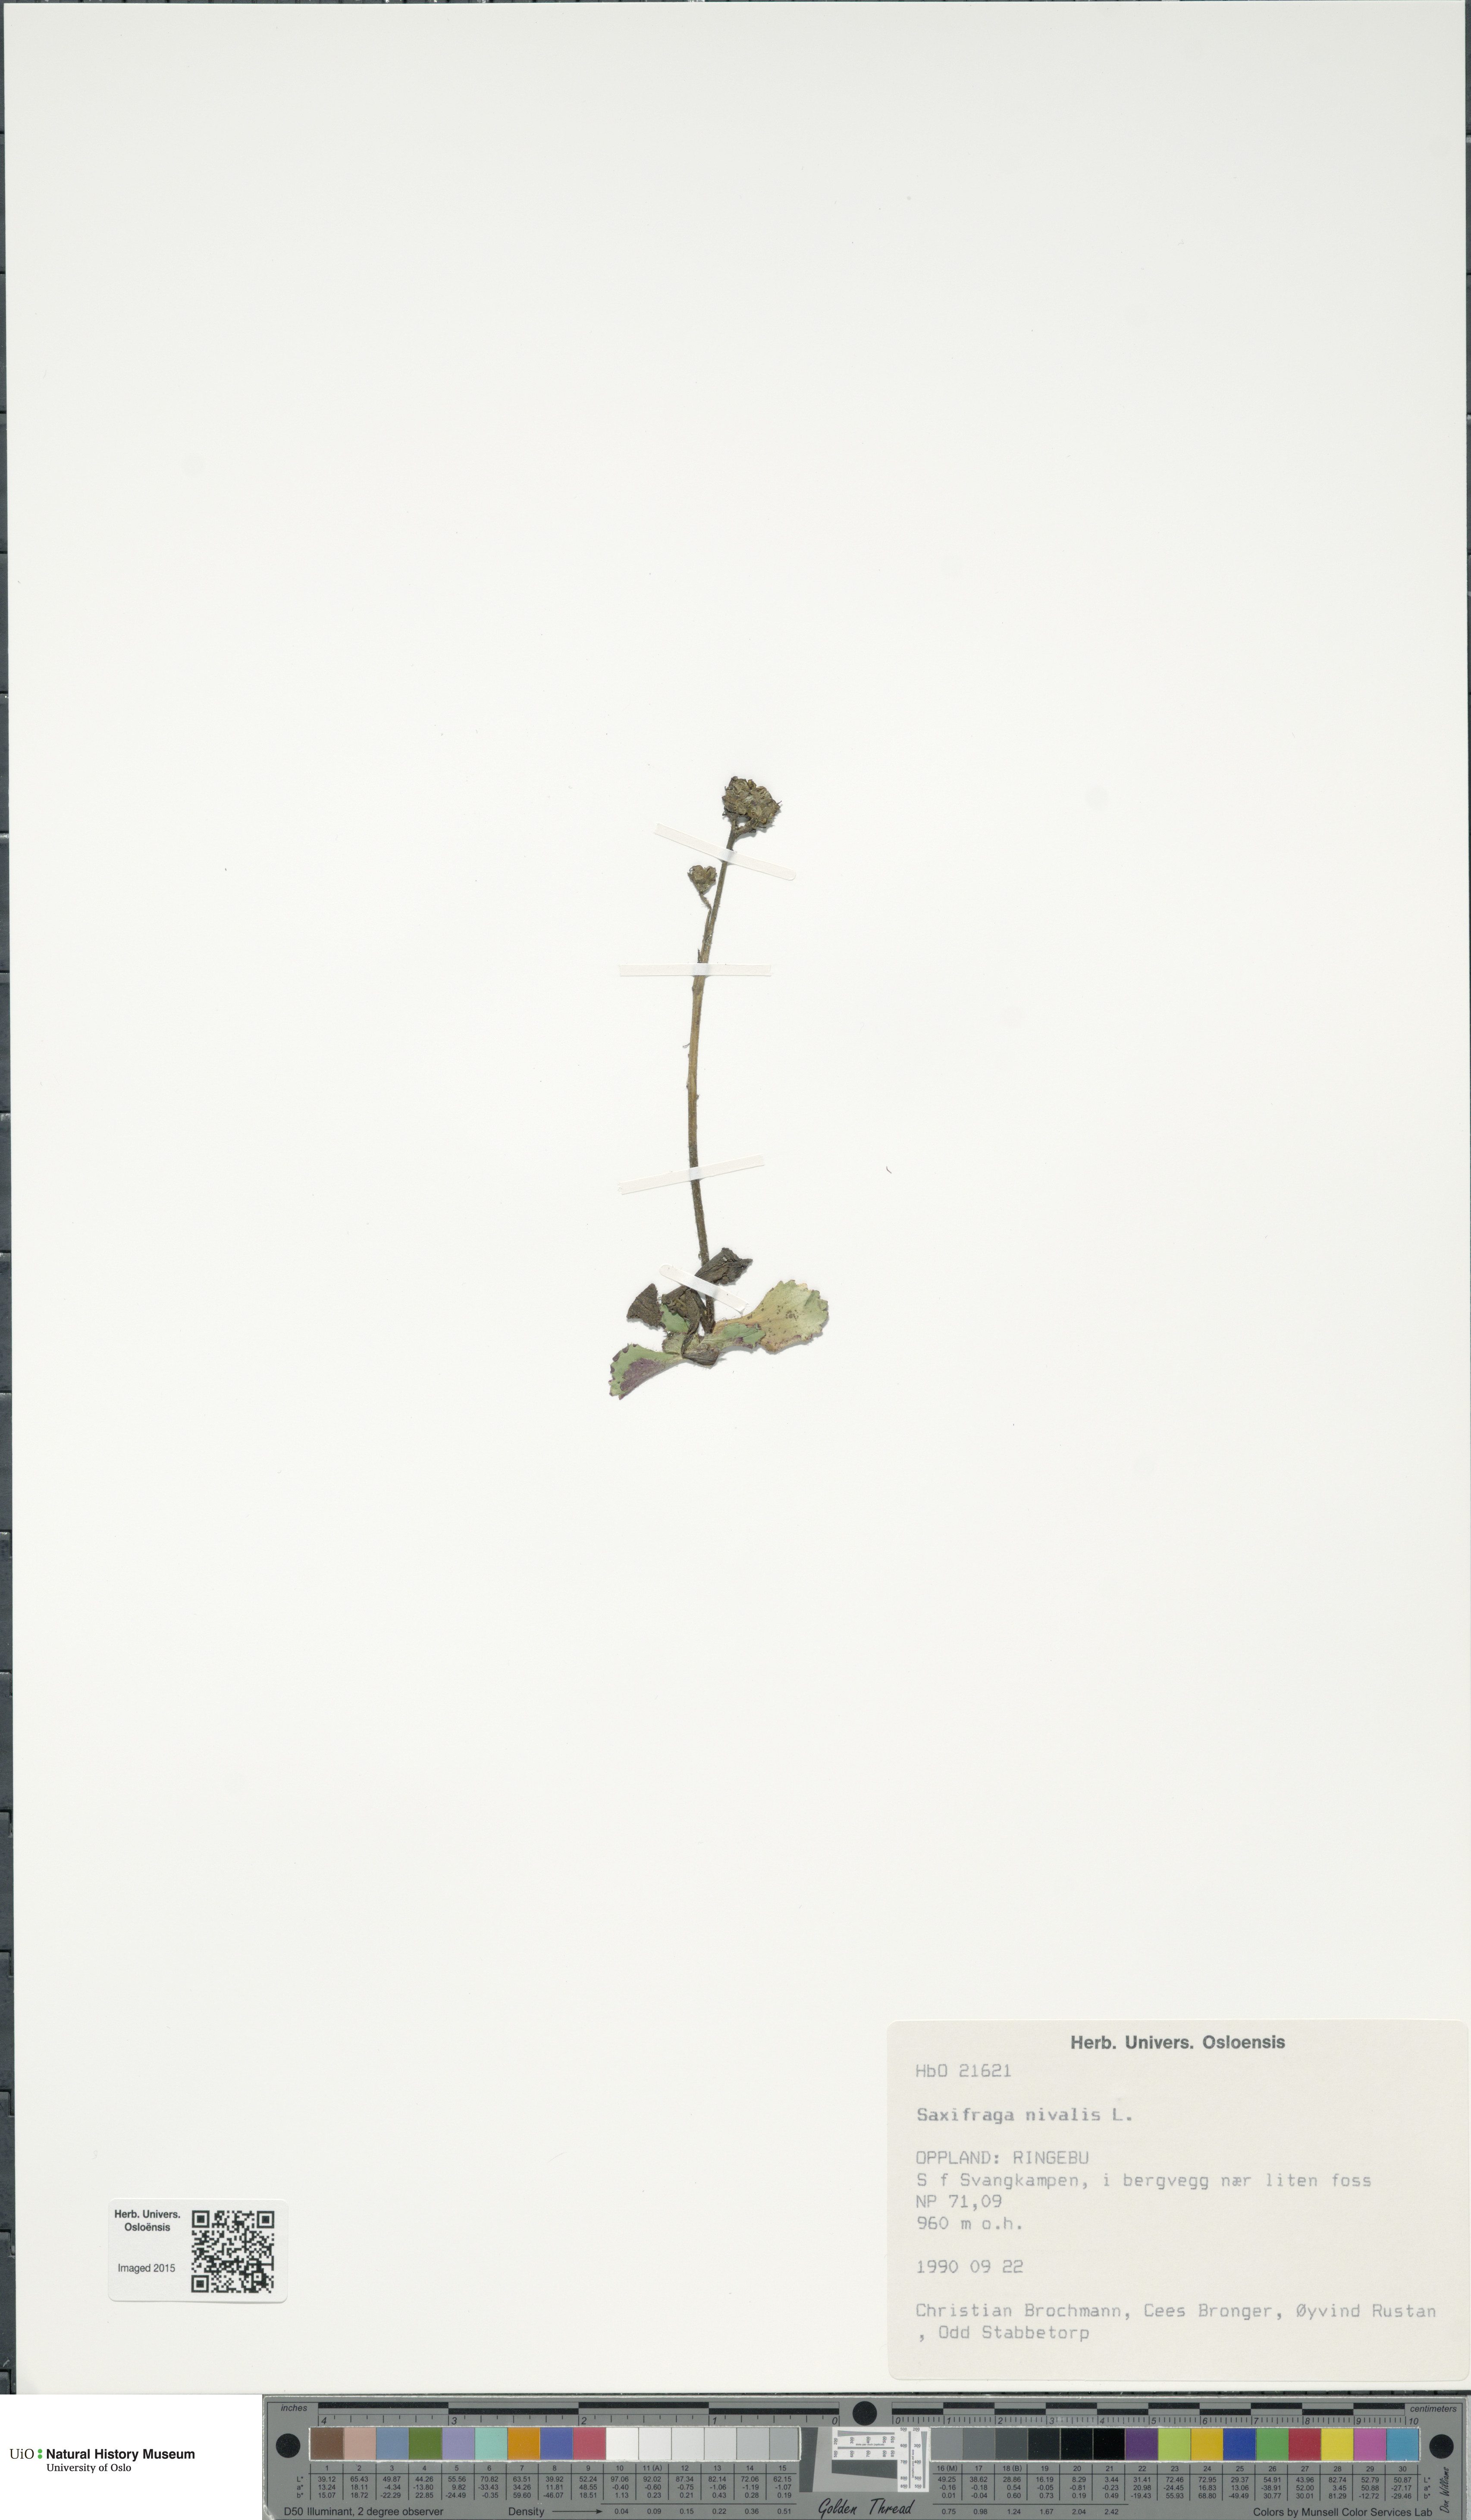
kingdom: Plantae
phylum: Tracheophyta
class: Magnoliopsida
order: Saxifragales
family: Saxifragaceae
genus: Micranthes
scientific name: Micranthes nivalis
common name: Alpine saxifrage
